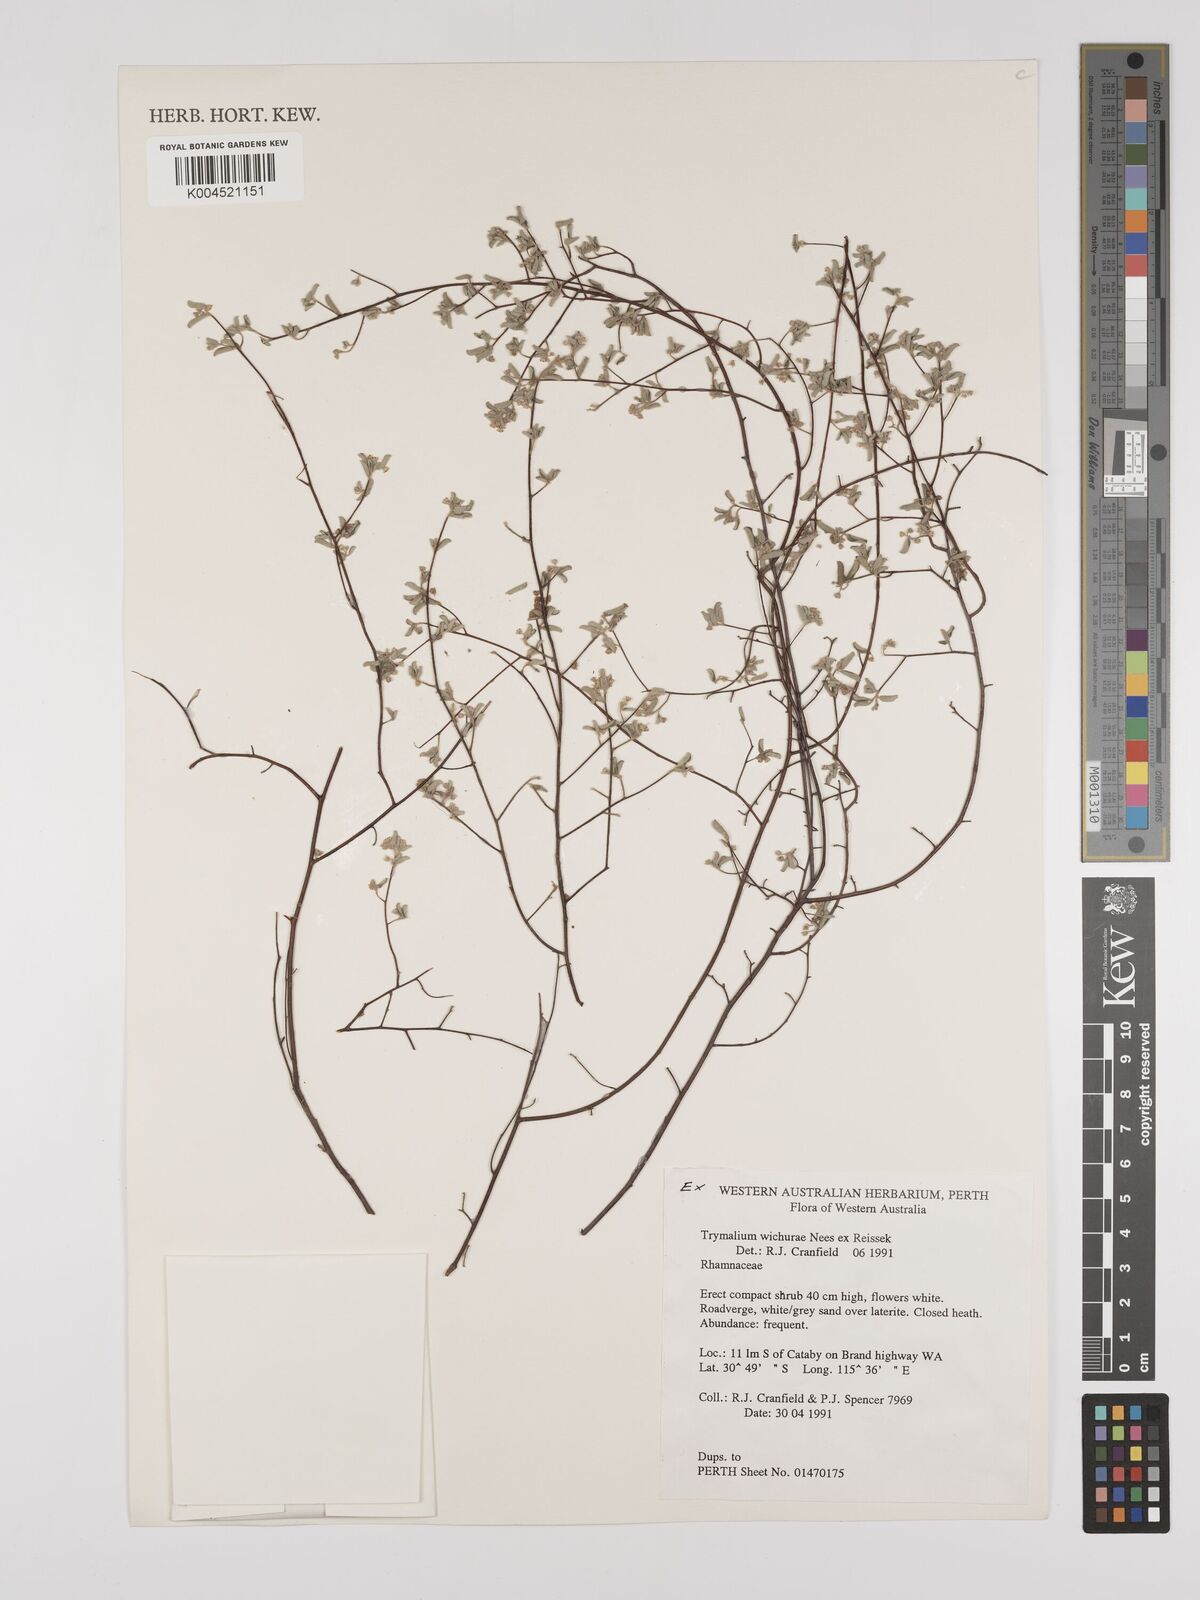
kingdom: Plantae
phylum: Tracheophyta
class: Magnoliopsida
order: Rosales
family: Rhamnaceae
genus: Polianthion
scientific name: Polianthion wichurae
